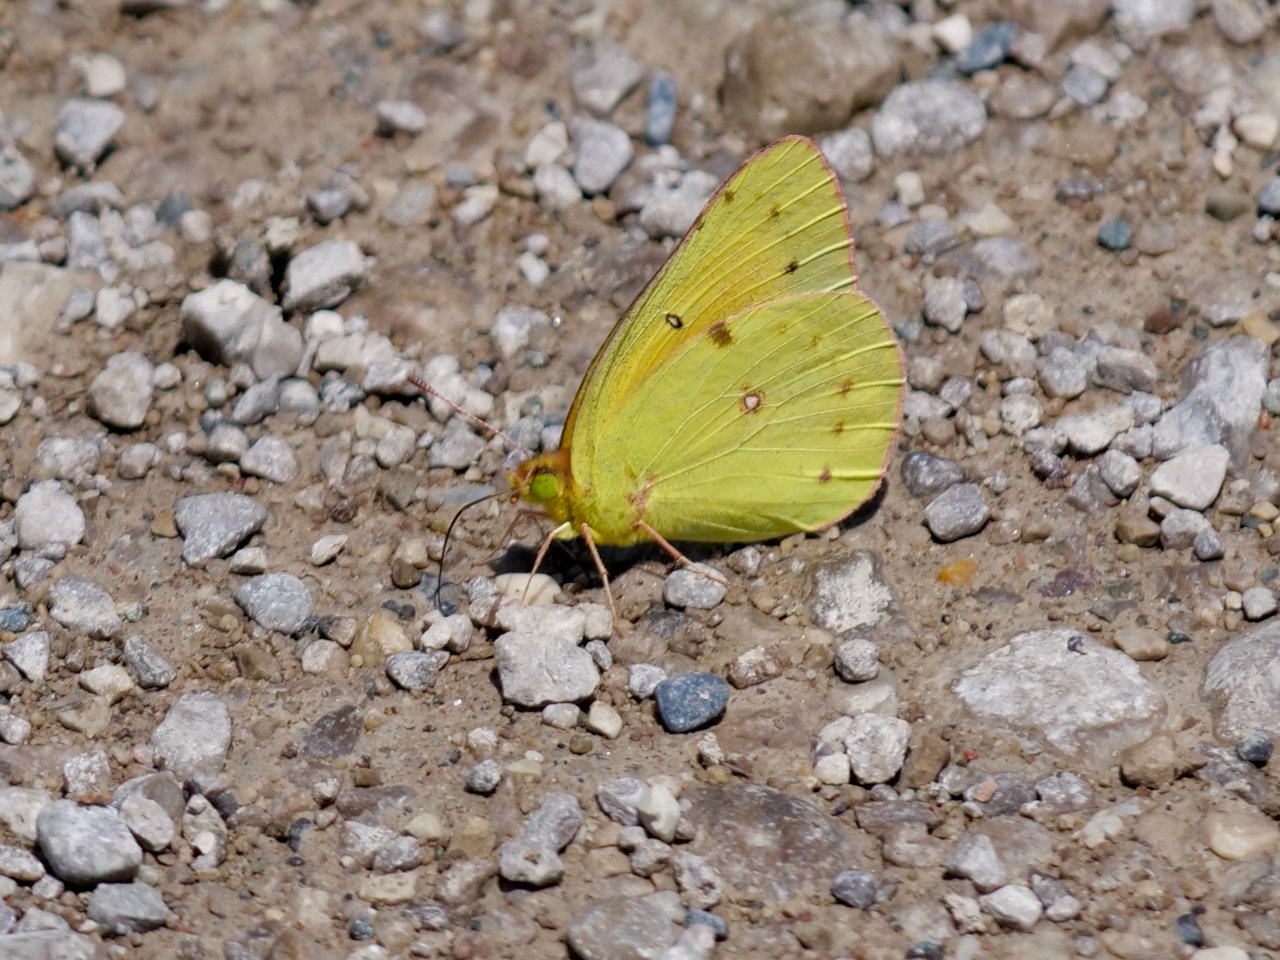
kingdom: Animalia
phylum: Arthropoda
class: Insecta
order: Lepidoptera
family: Pieridae
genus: Colias
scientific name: Colias eurytheme
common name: Orange Sulphur
